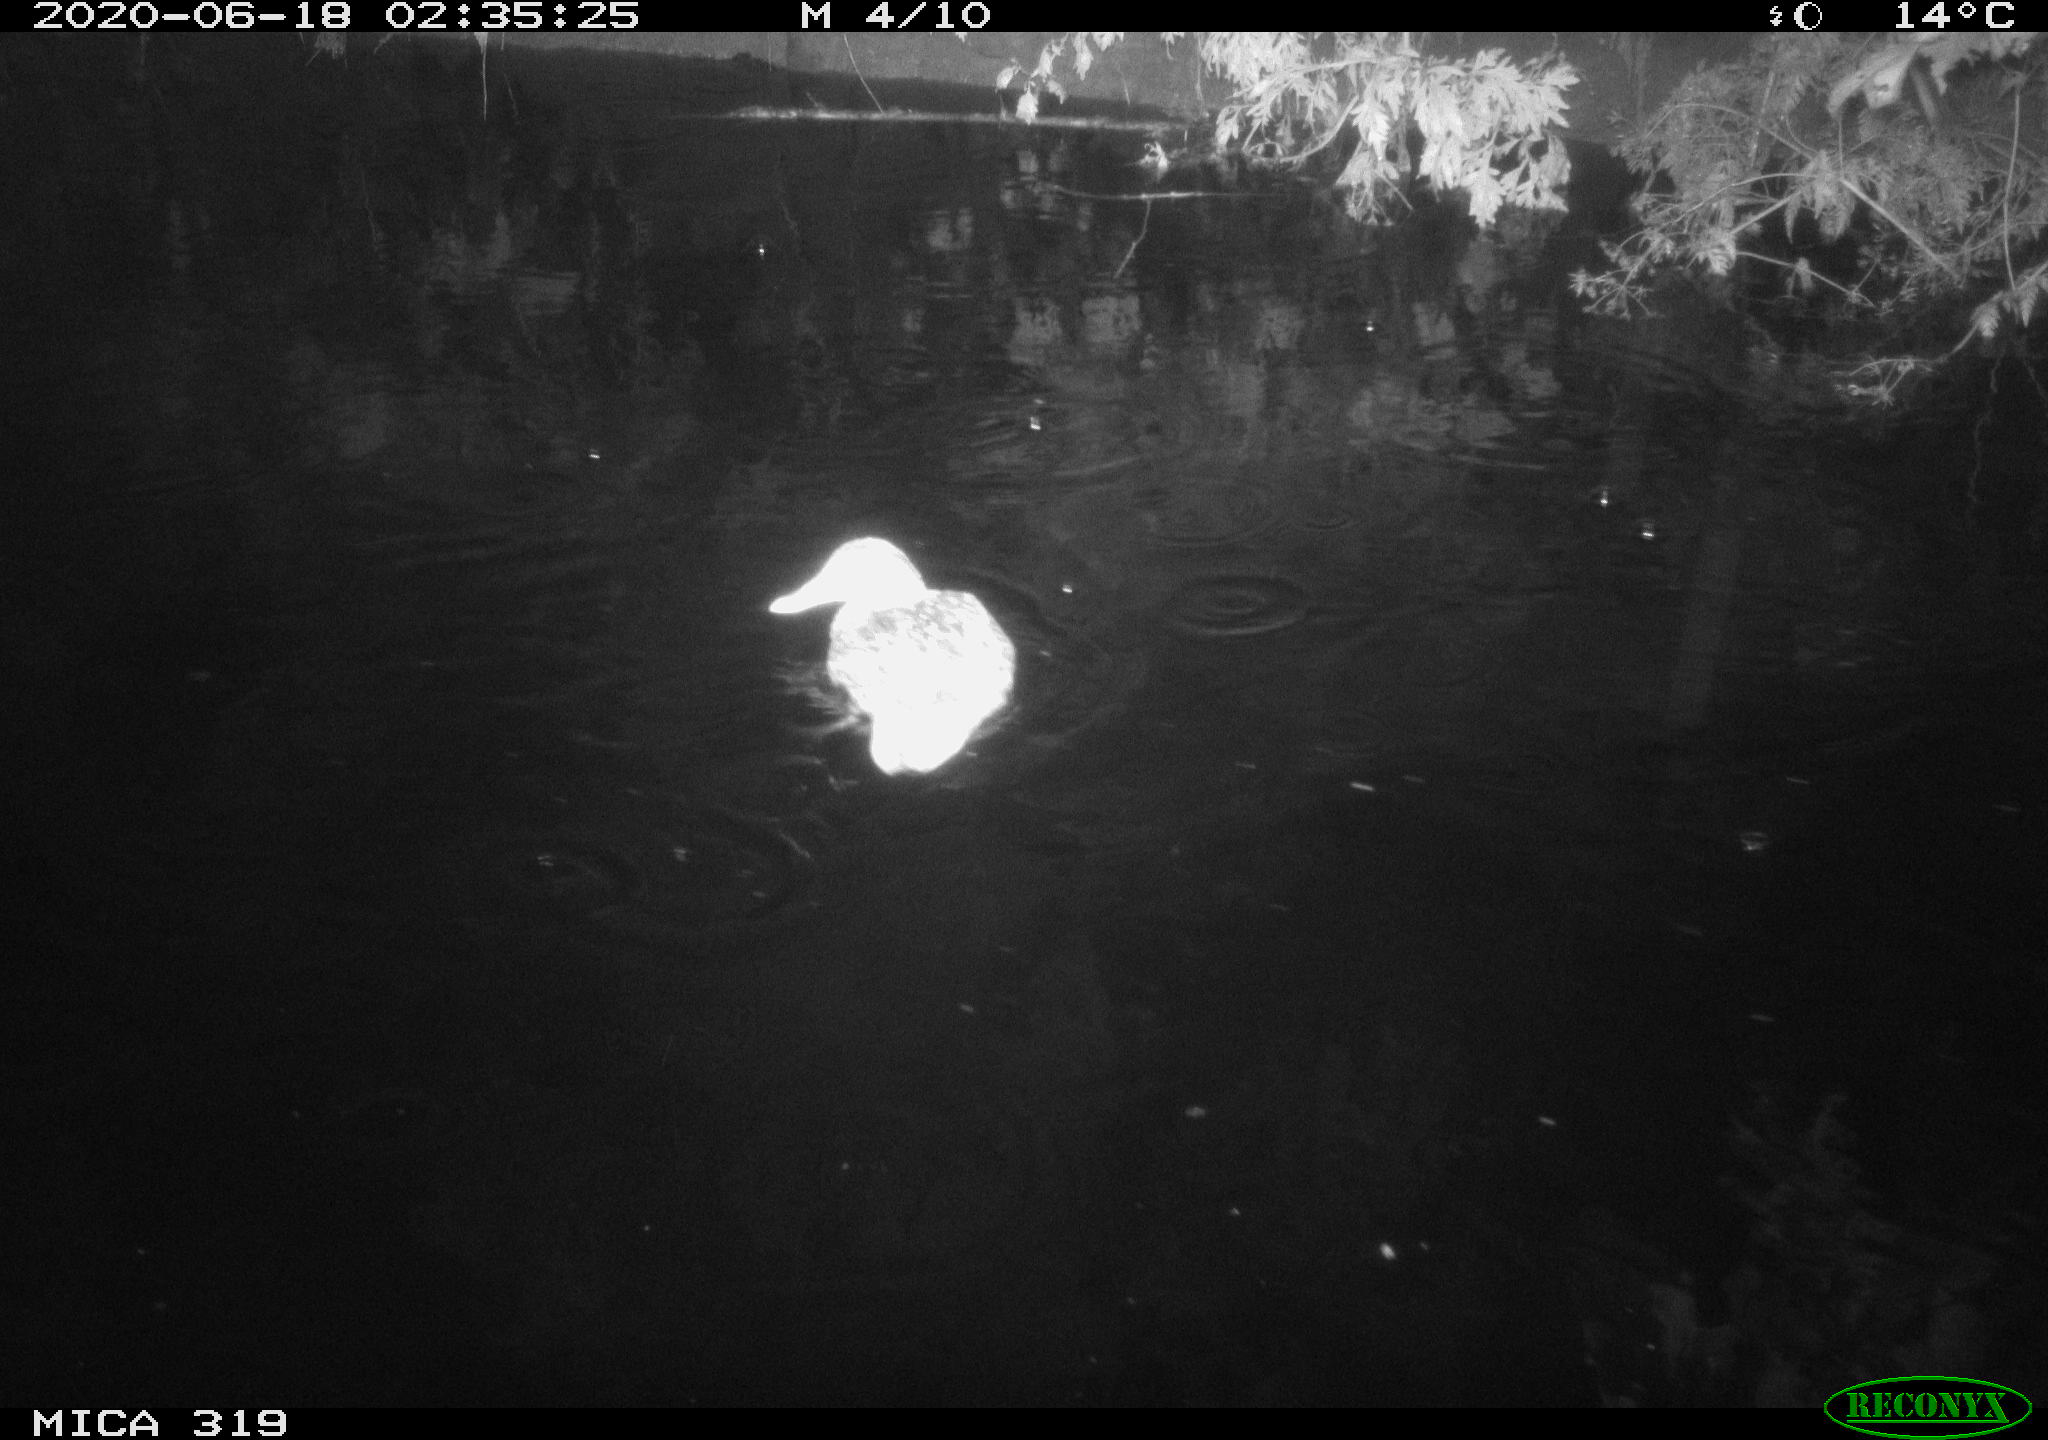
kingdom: Animalia
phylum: Chordata
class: Aves
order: Anseriformes
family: Anatidae
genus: Anas
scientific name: Anas platyrhynchos
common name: Mallard
